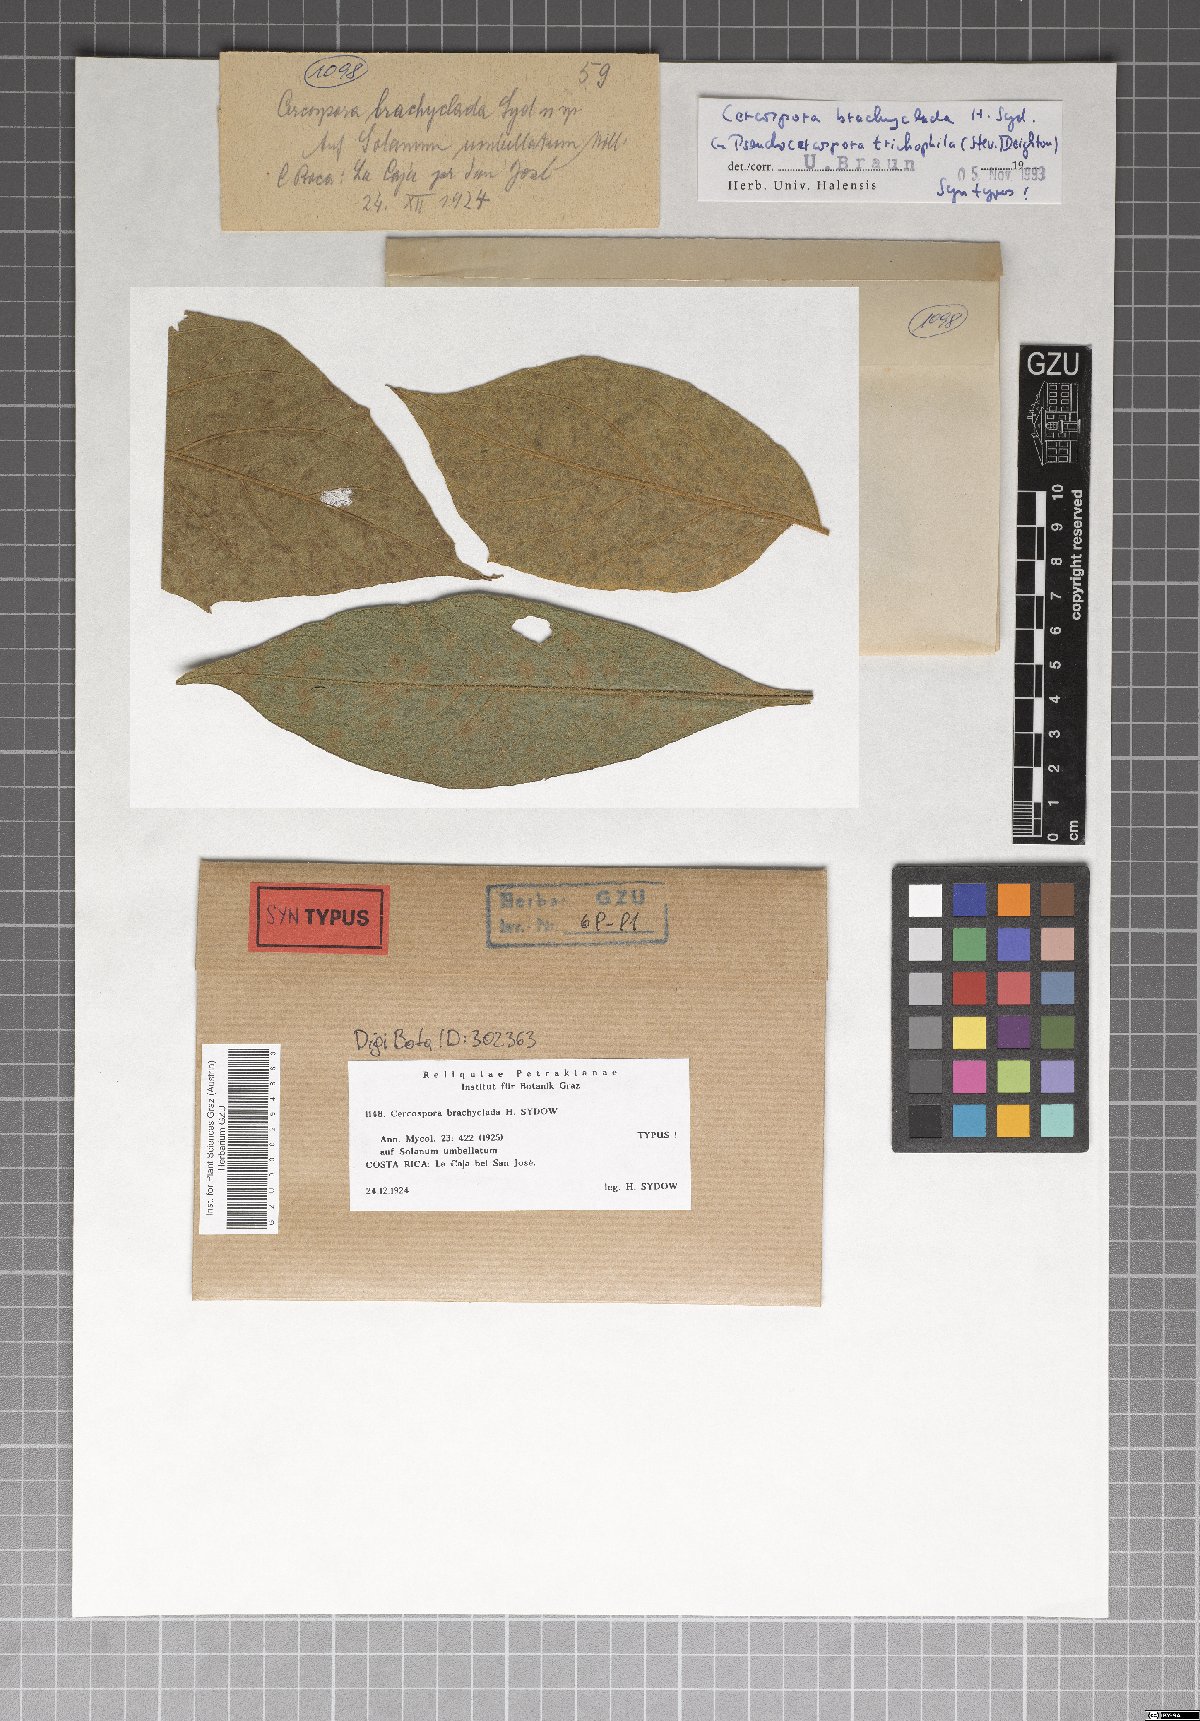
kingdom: Fungi
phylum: Ascomycota
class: Dothideomycetes
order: Mycosphaerellales
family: Mycosphaerellaceae
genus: Pseudocercospora
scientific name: Pseudocercospora trichophila
